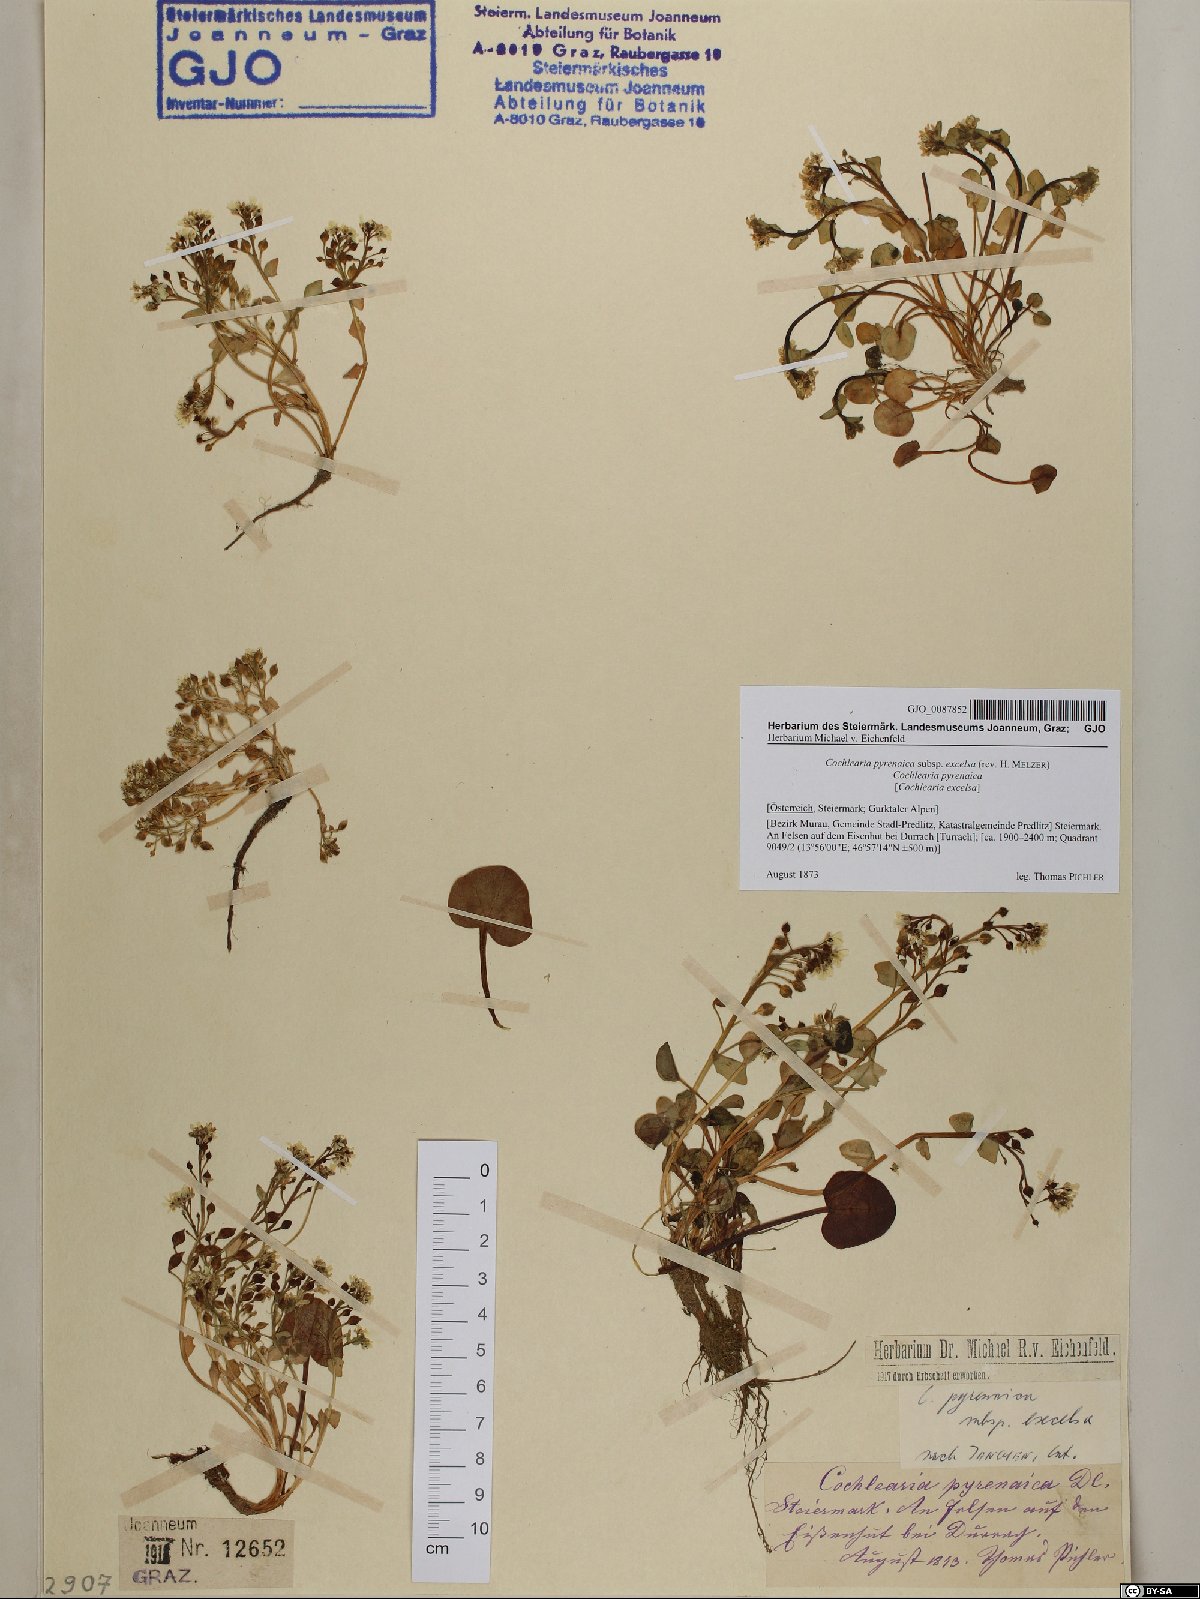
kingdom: Plantae
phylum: Tracheophyta
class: Magnoliopsida
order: Brassicales
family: Brassicaceae
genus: Cochlearia
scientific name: Cochlearia pyrenaica
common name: Upland scurvy-grass
